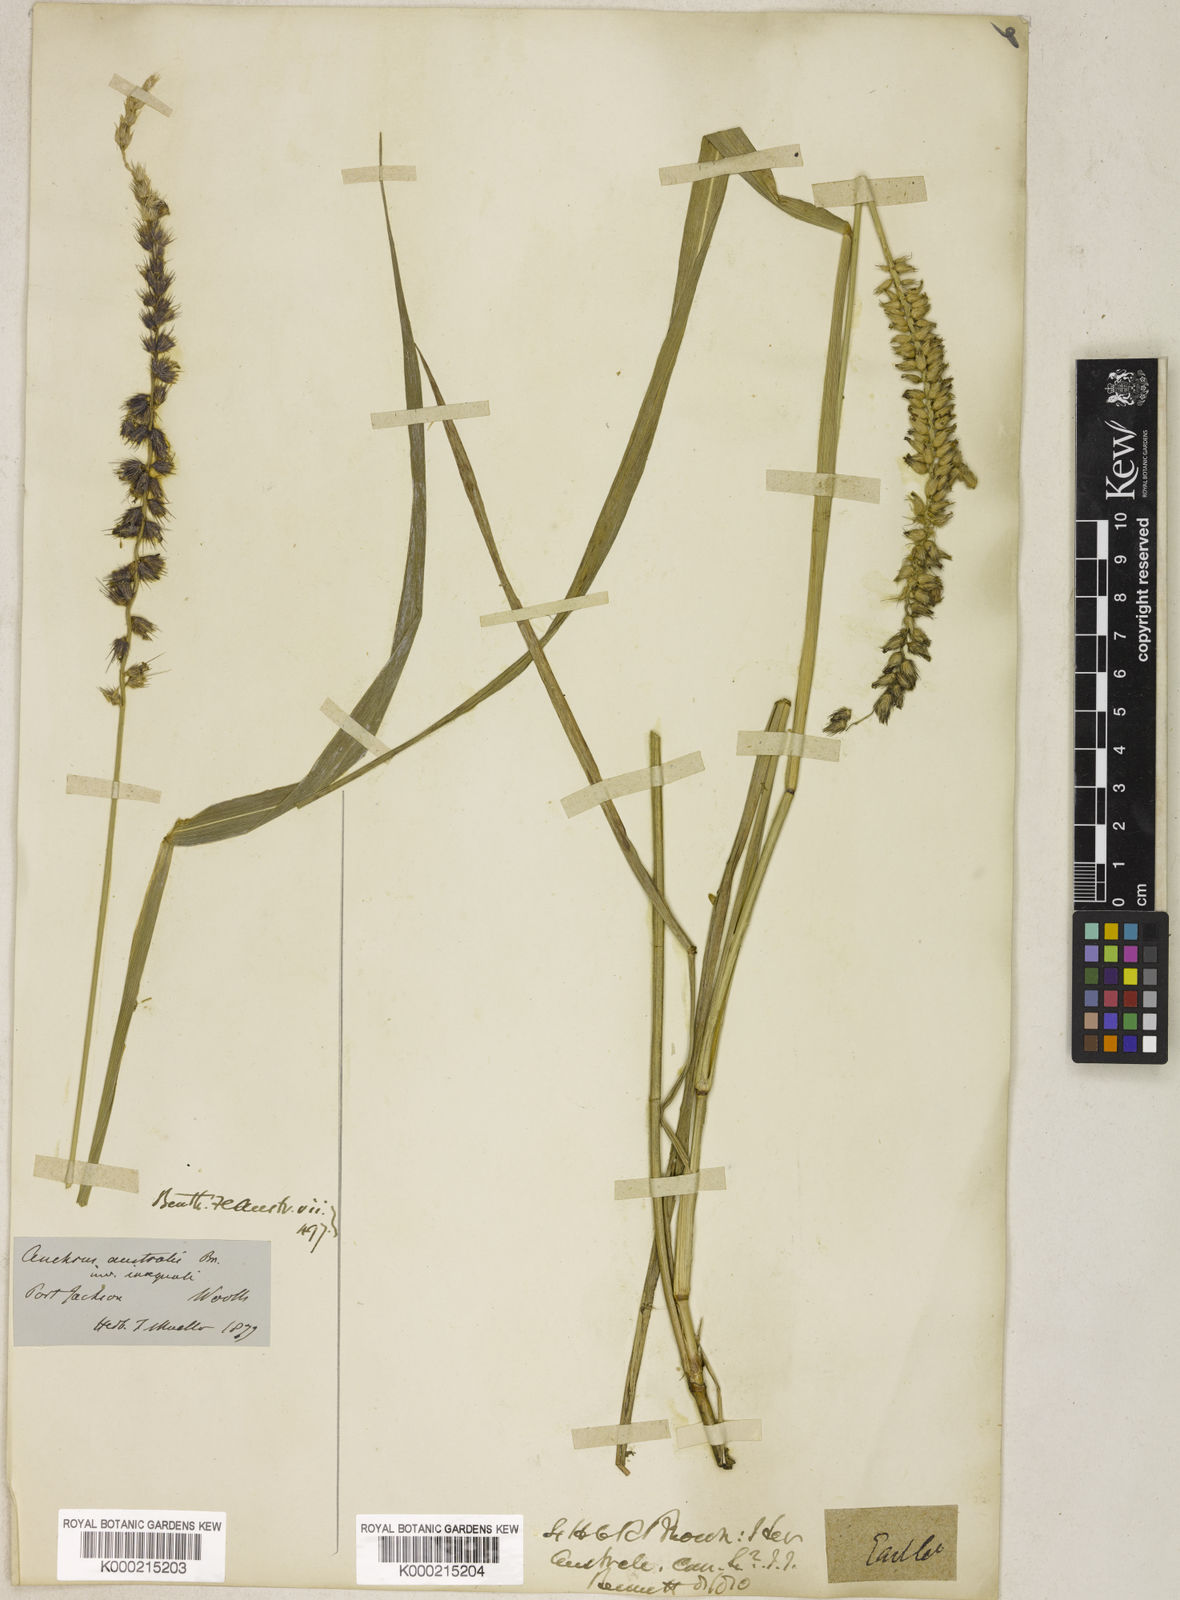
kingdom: Plantae
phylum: Tracheophyta
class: Liliopsida
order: Poales
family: Poaceae
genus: Cenchrus
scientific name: Cenchrus caliculatus
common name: Large bur grass
